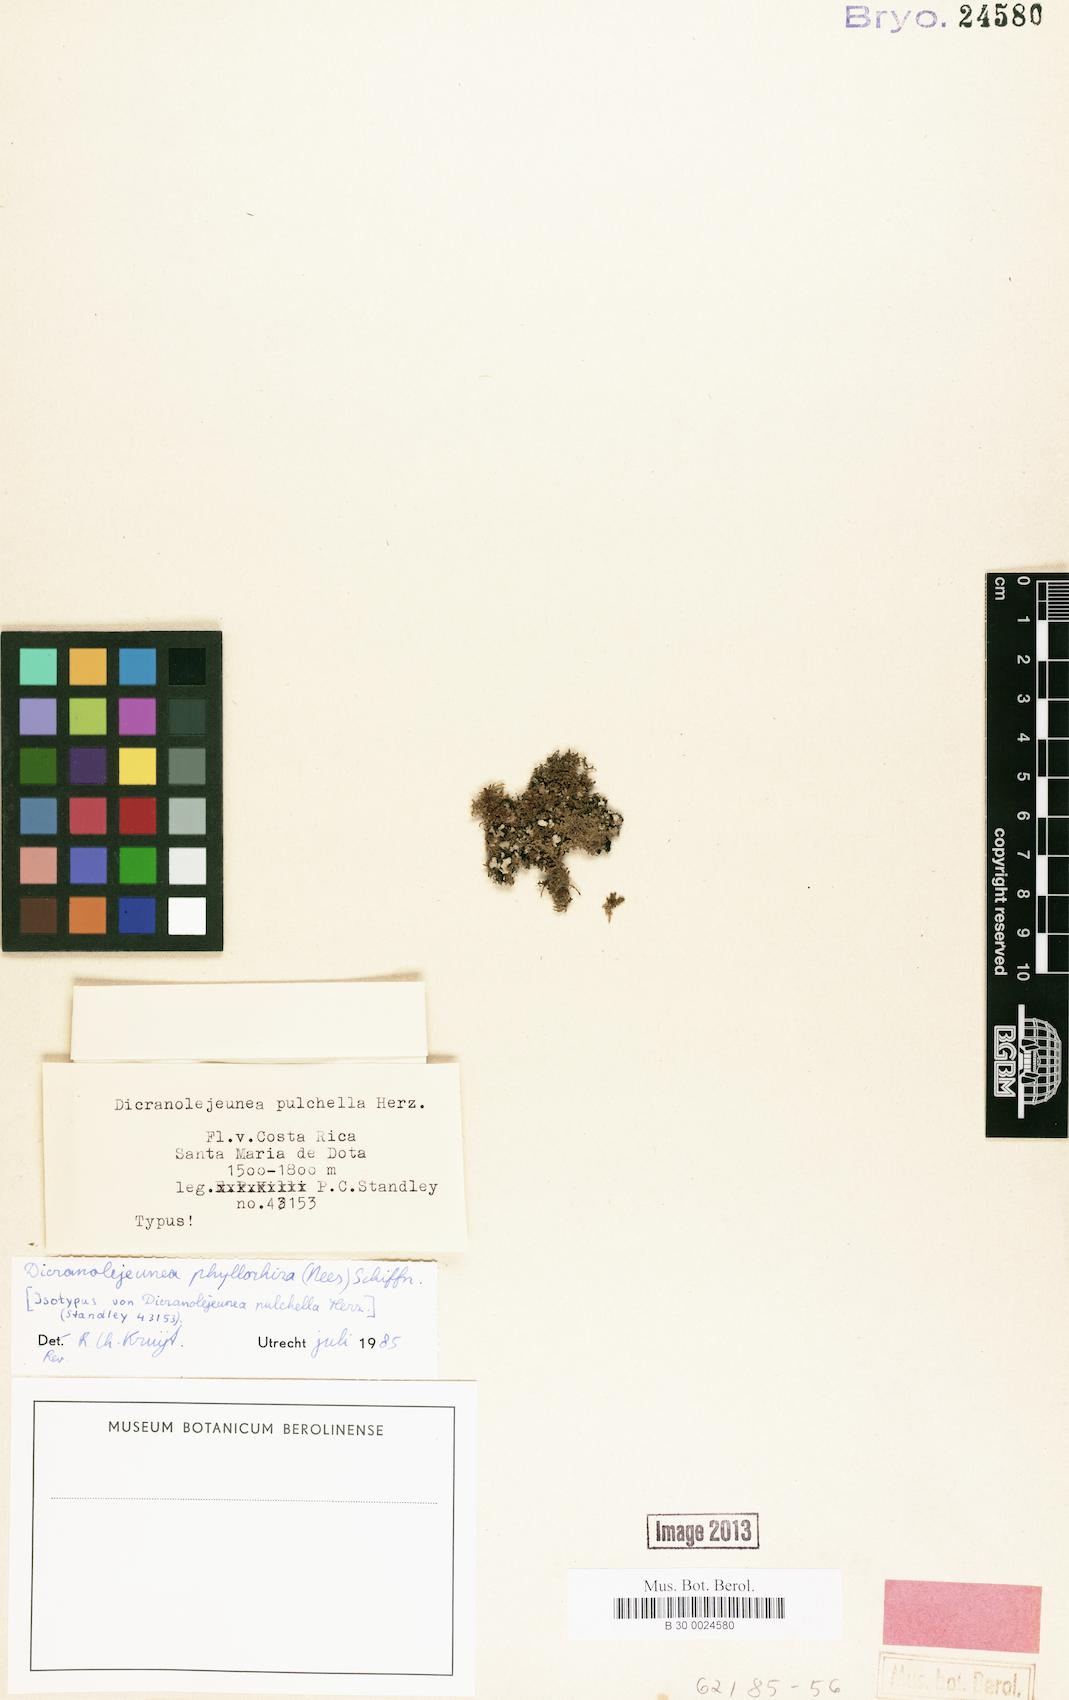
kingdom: Plantae
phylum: Marchantiophyta
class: Jungermanniopsida
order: Porellales
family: Lejeuneaceae
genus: Brachiolejeunea
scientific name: Brachiolejeunea phyllorhiza
